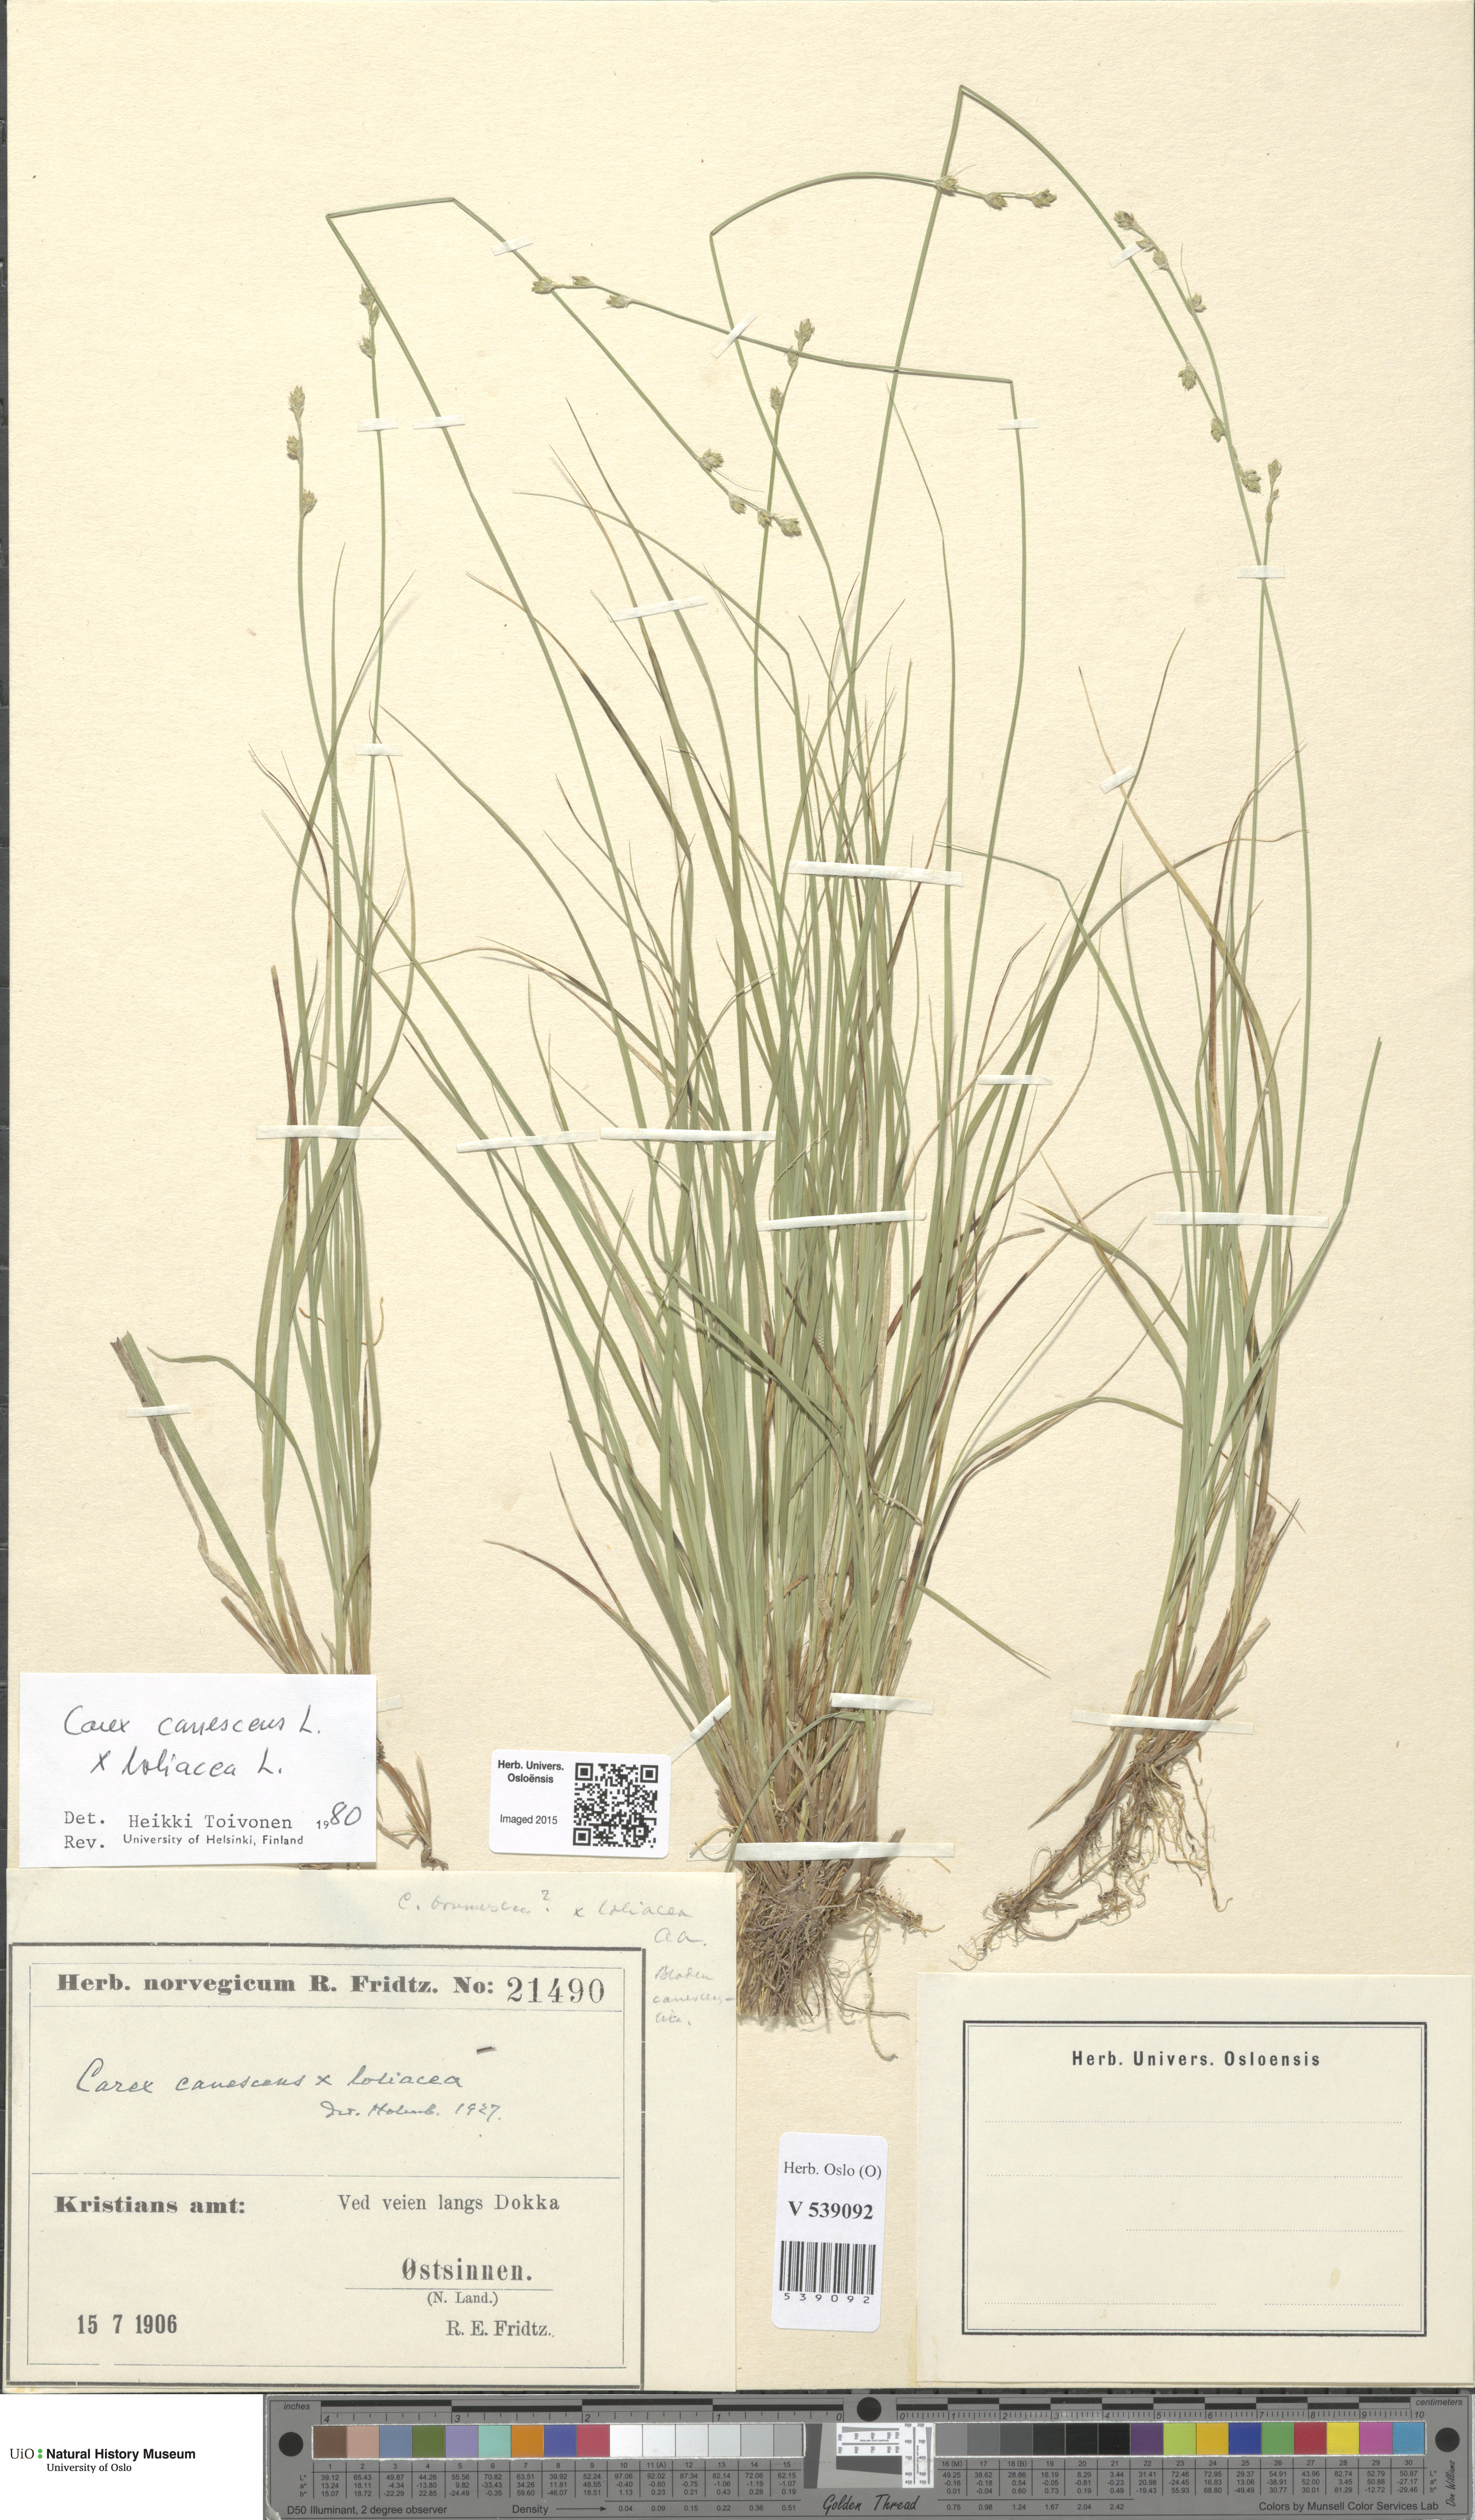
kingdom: Plantae
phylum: Tracheophyta
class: Liliopsida
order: Poales
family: Cyperaceae
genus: Carex
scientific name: Carex
